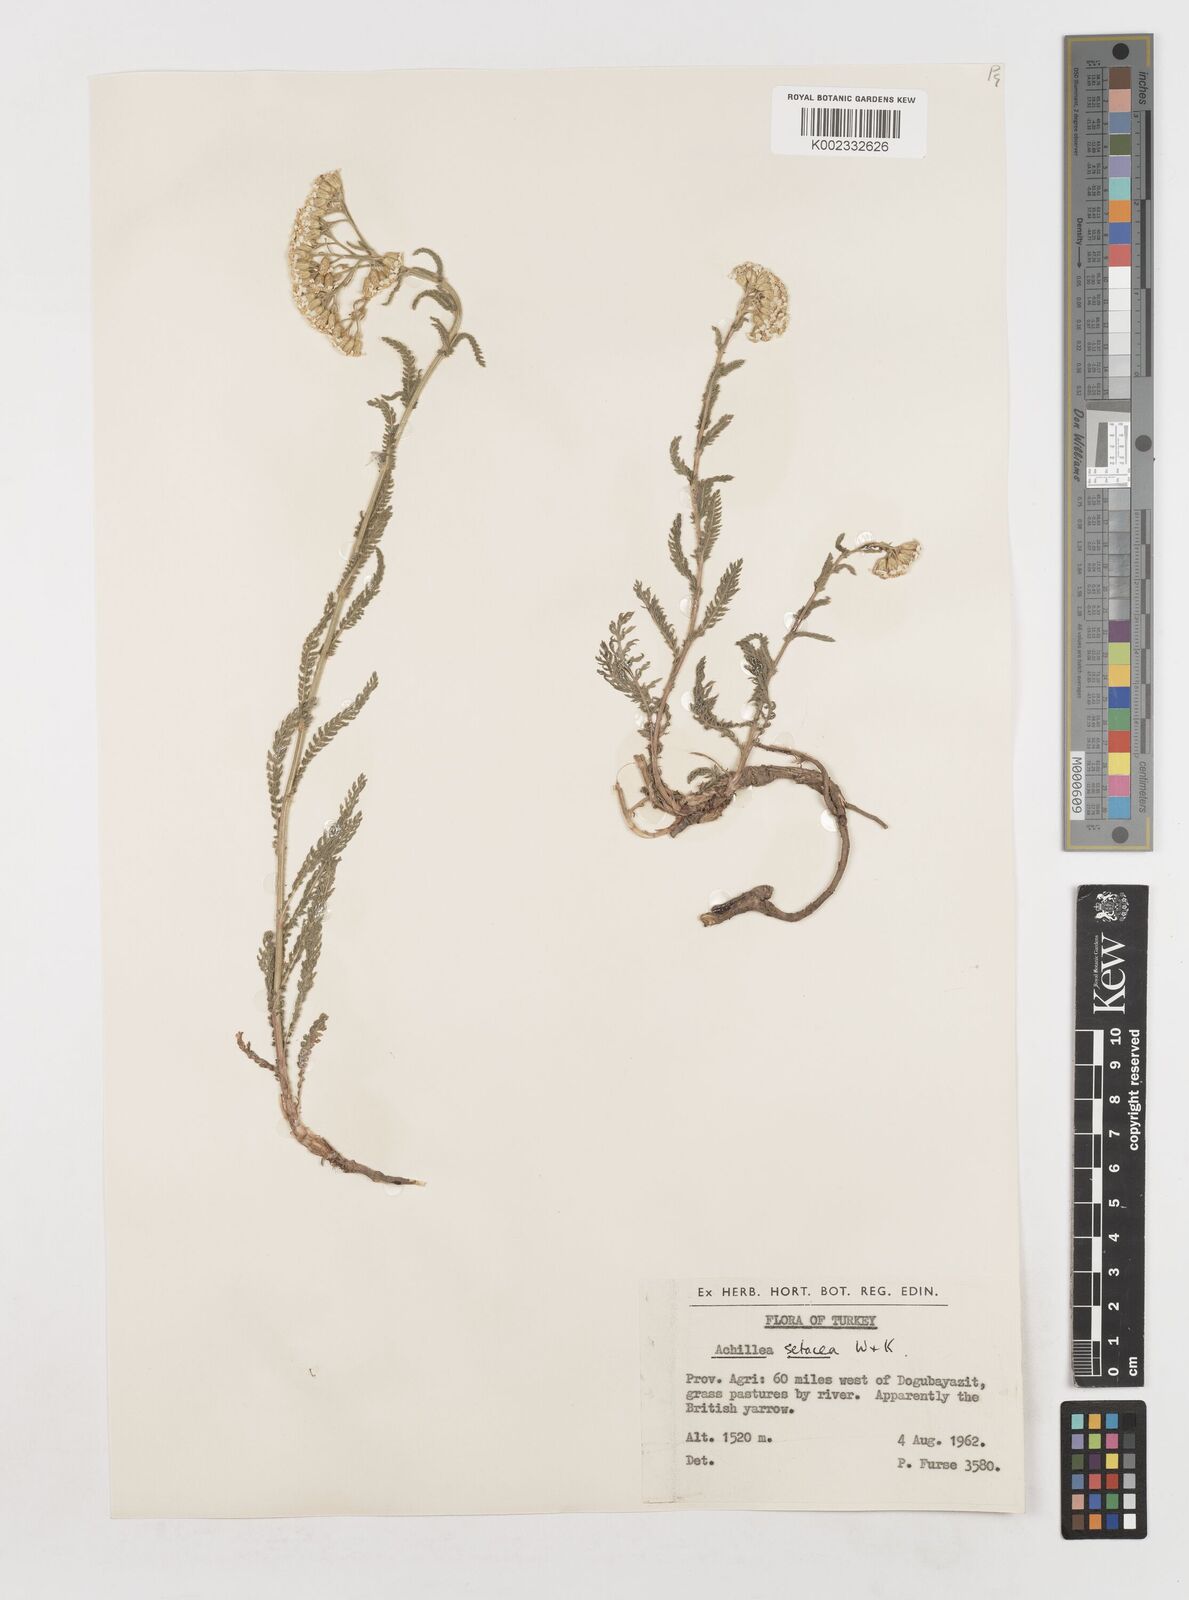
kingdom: Plantae
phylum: Tracheophyta
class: Magnoliopsida
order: Asterales
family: Asteraceae
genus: Achillea
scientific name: Achillea setacea
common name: Bristly yarrow
